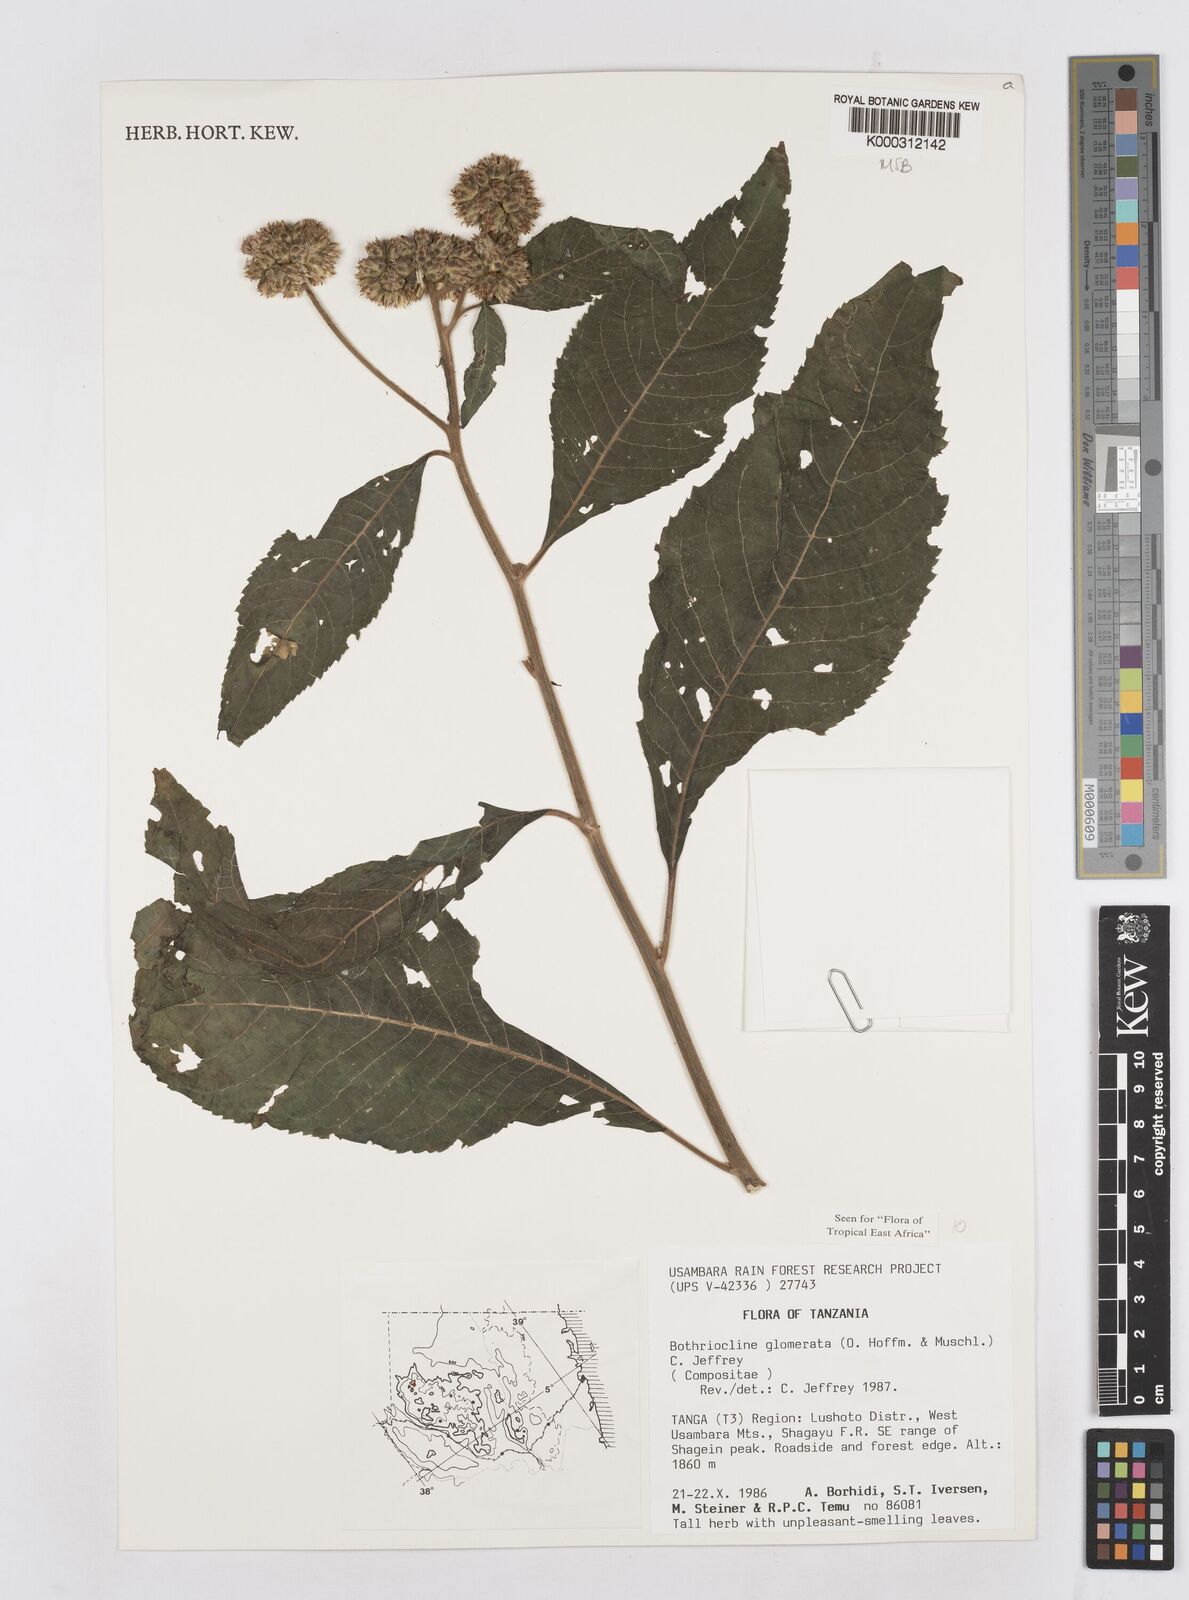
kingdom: Plantae
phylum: Tracheophyta
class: Magnoliopsida
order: Asterales
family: Asteraceae
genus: Bothriocline
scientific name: Bothriocline glomerata
